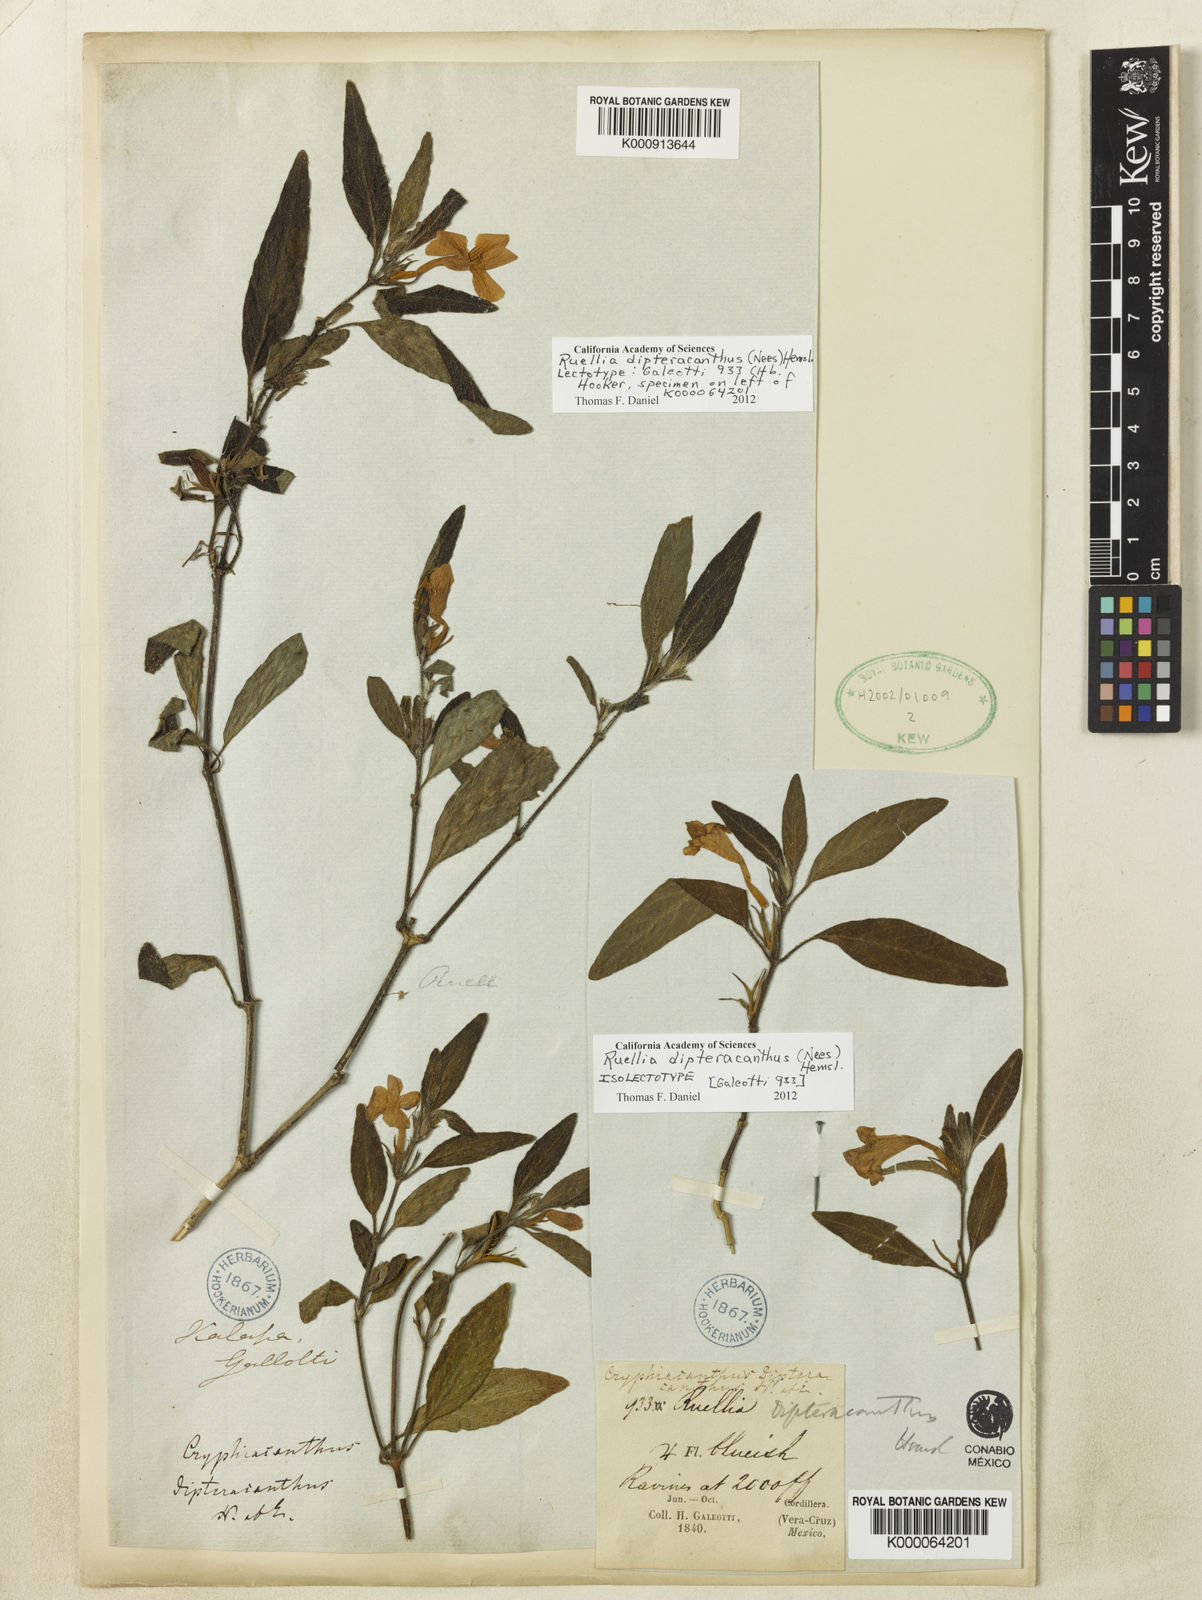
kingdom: Plantae
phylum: Tracheophyta
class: Magnoliopsida
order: Lamiales
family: Acanthaceae
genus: Ruellia
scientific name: Ruellia bourgaei
